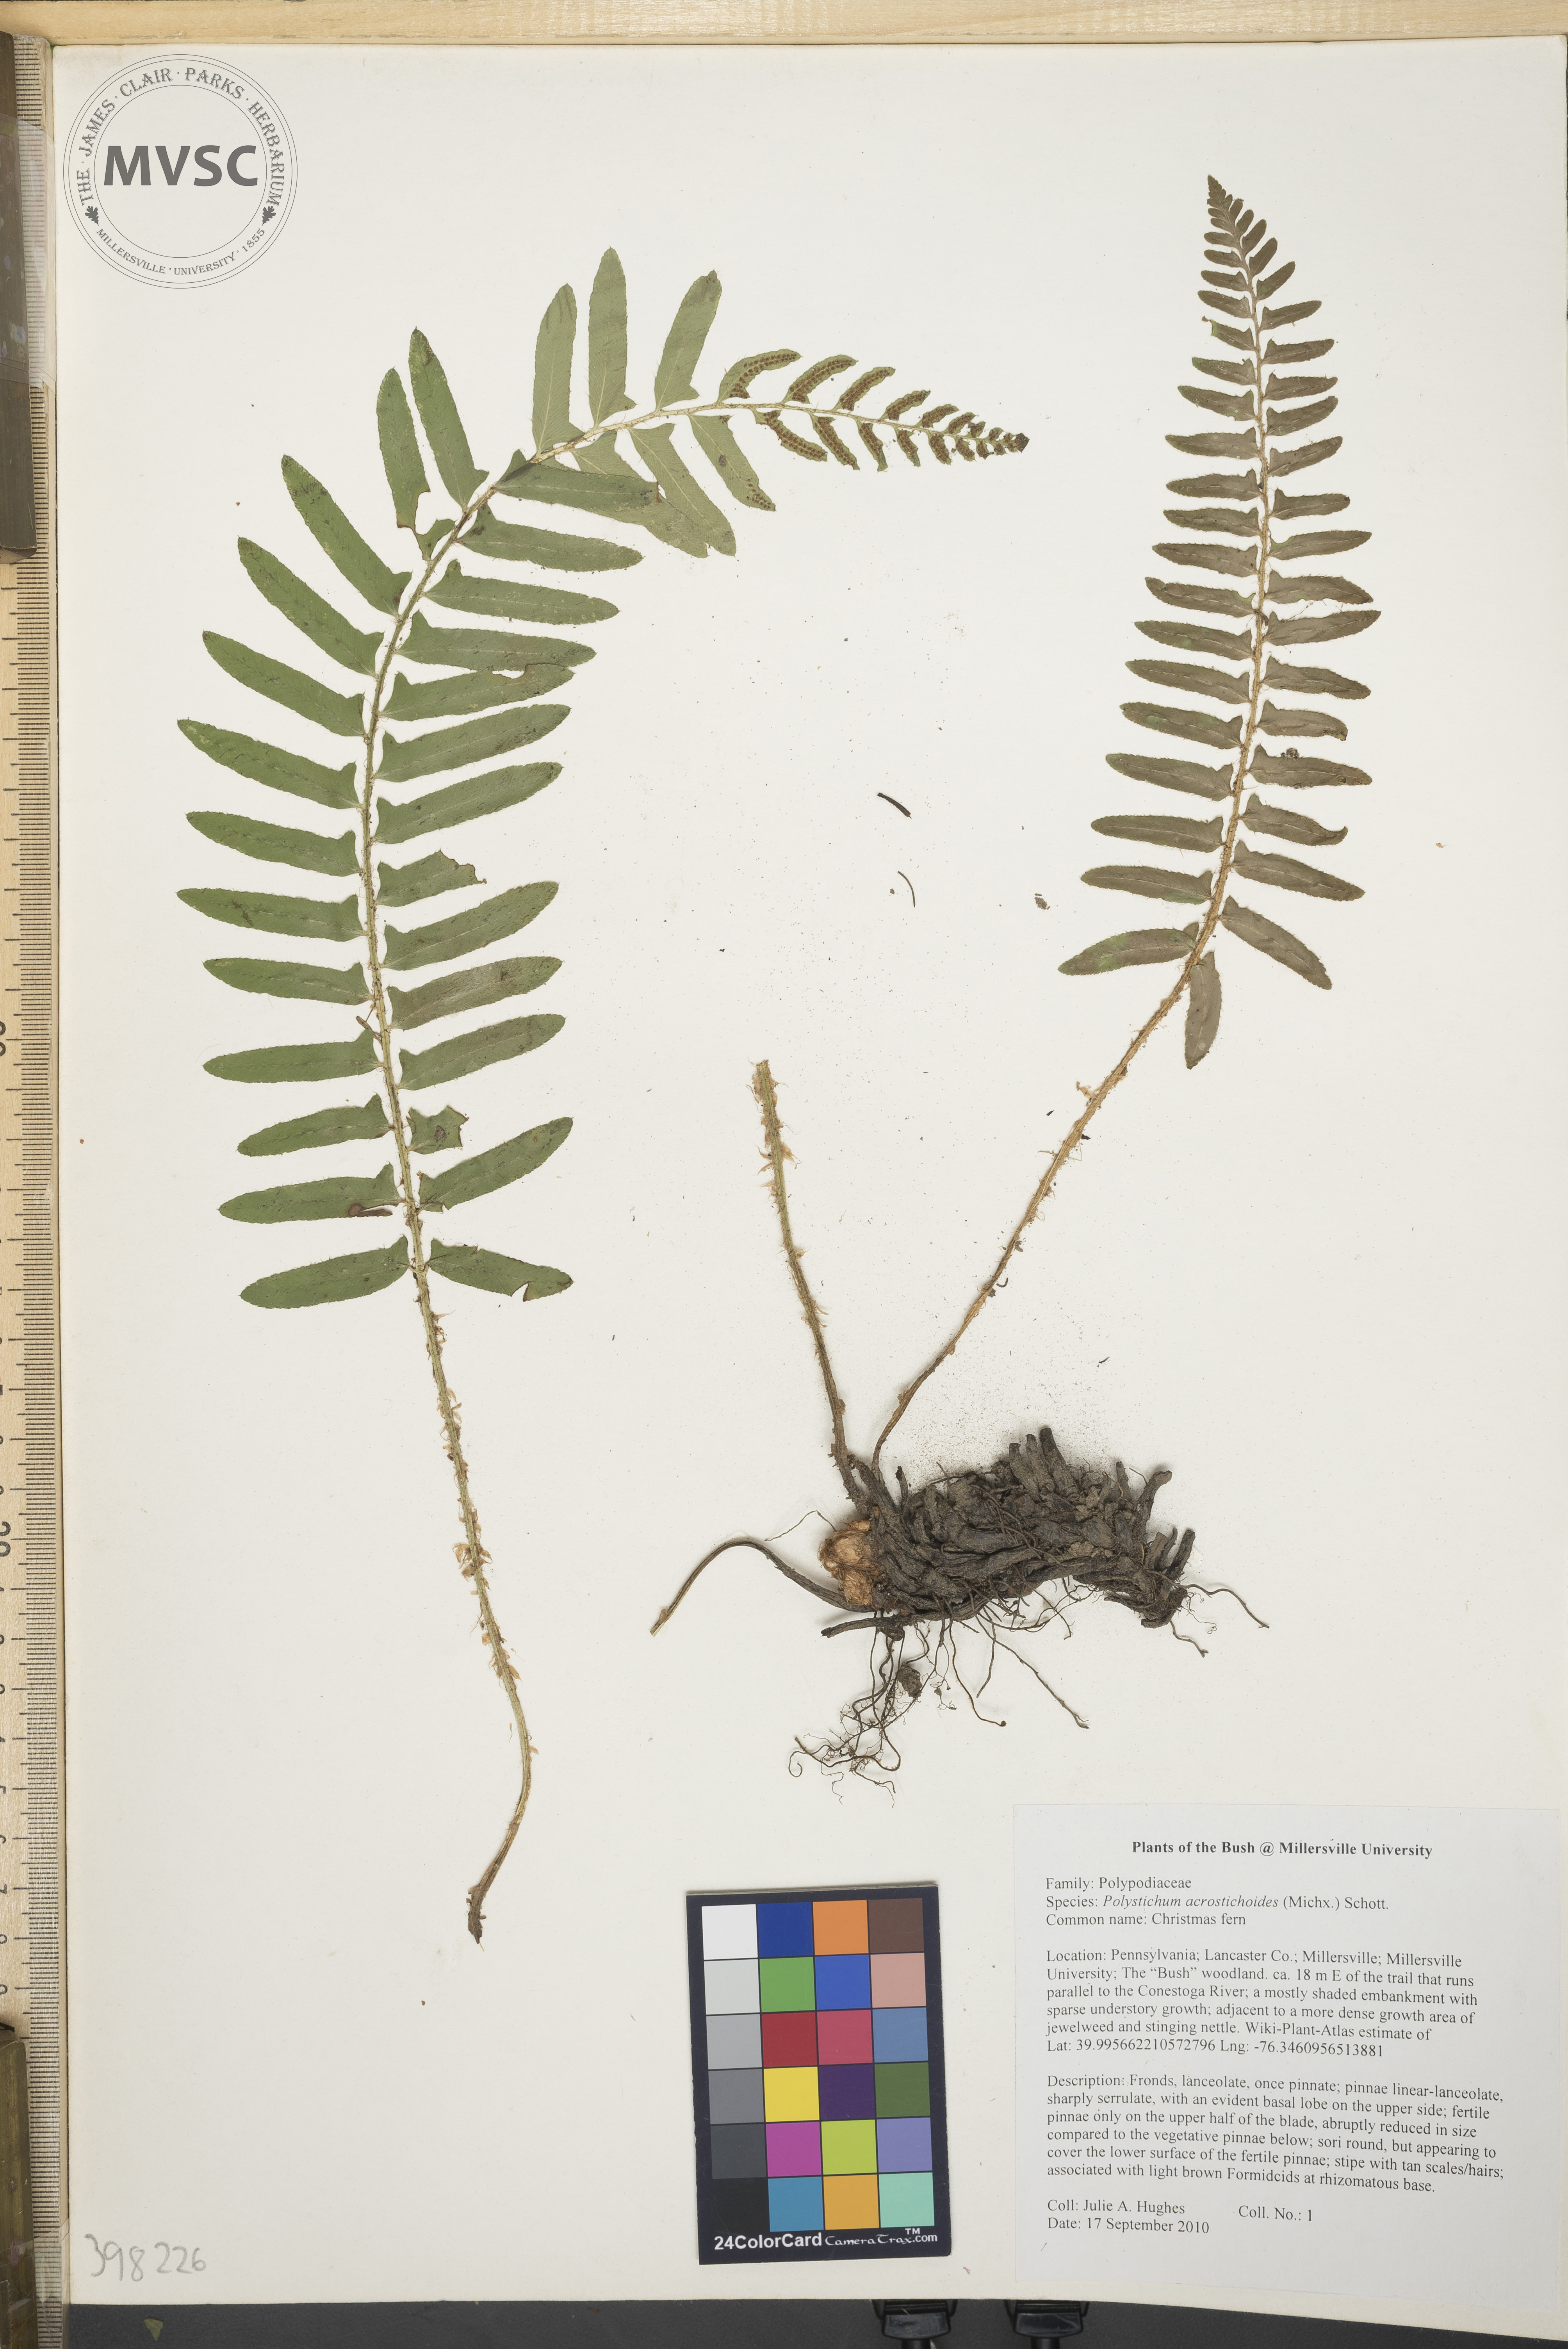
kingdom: Plantae
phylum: Tracheophyta
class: Polypodiopsida
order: Polypodiales
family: Dryopteridaceae
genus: Polystichum
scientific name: Polystichum acrostichoides
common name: Christmas fern
